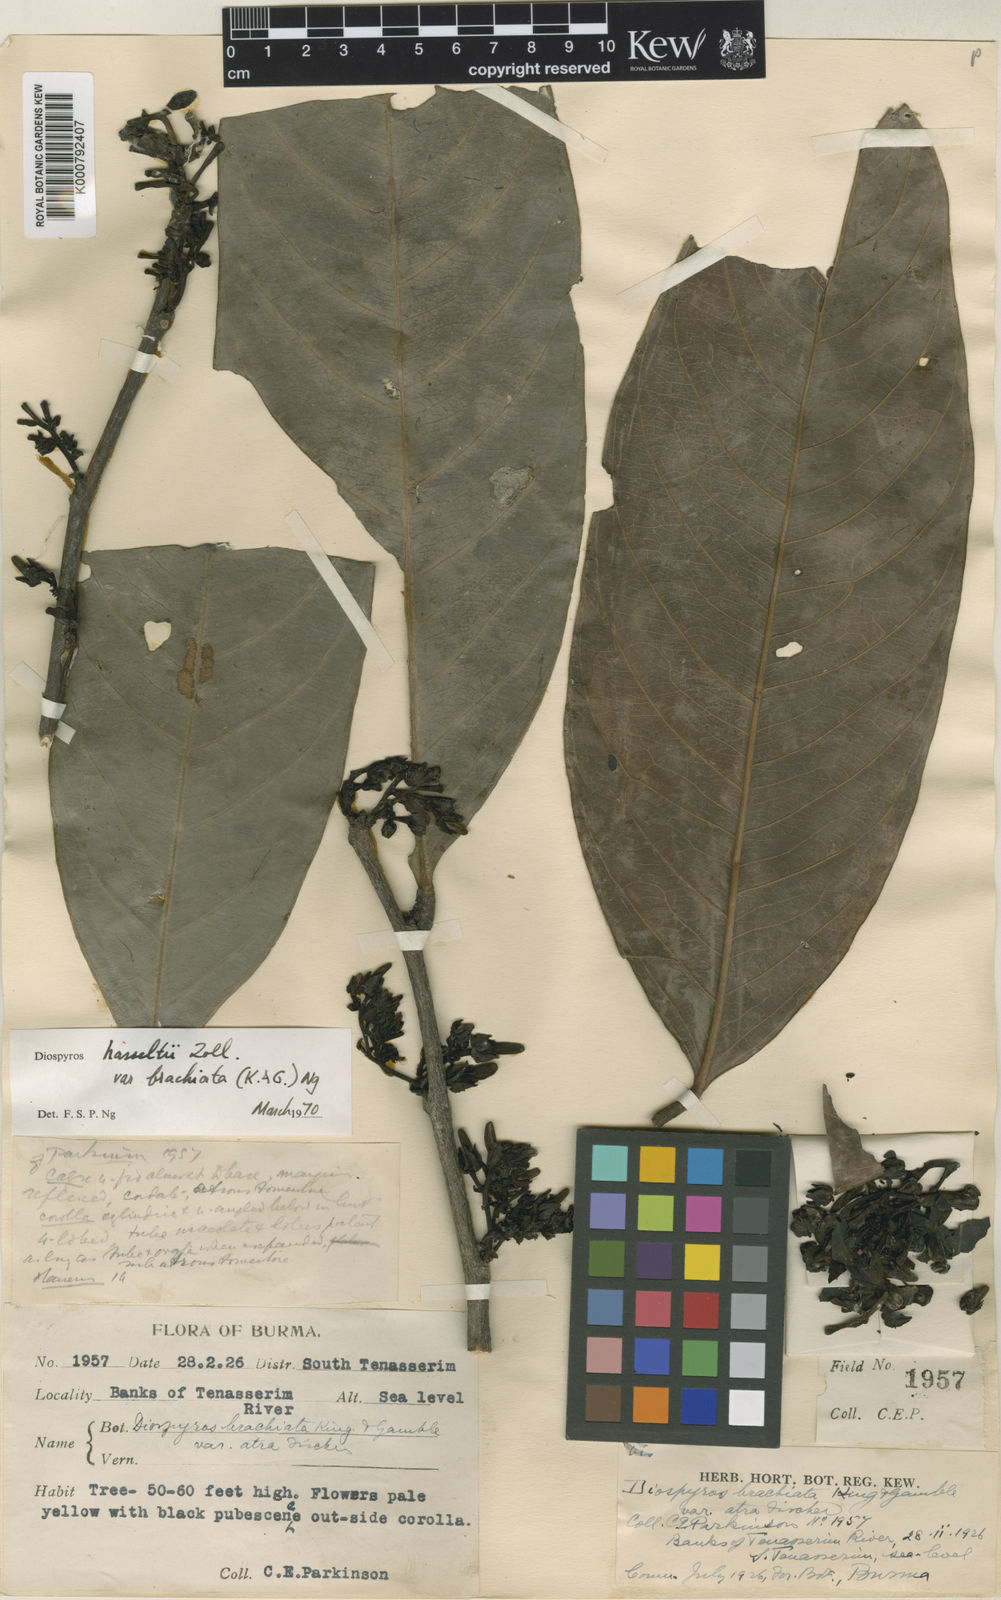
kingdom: Plantae
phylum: Tracheophyta
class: Magnoliopsida
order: Ericales
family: Ebenaceae
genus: Diospyros
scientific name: Diospyros dictyoneura
